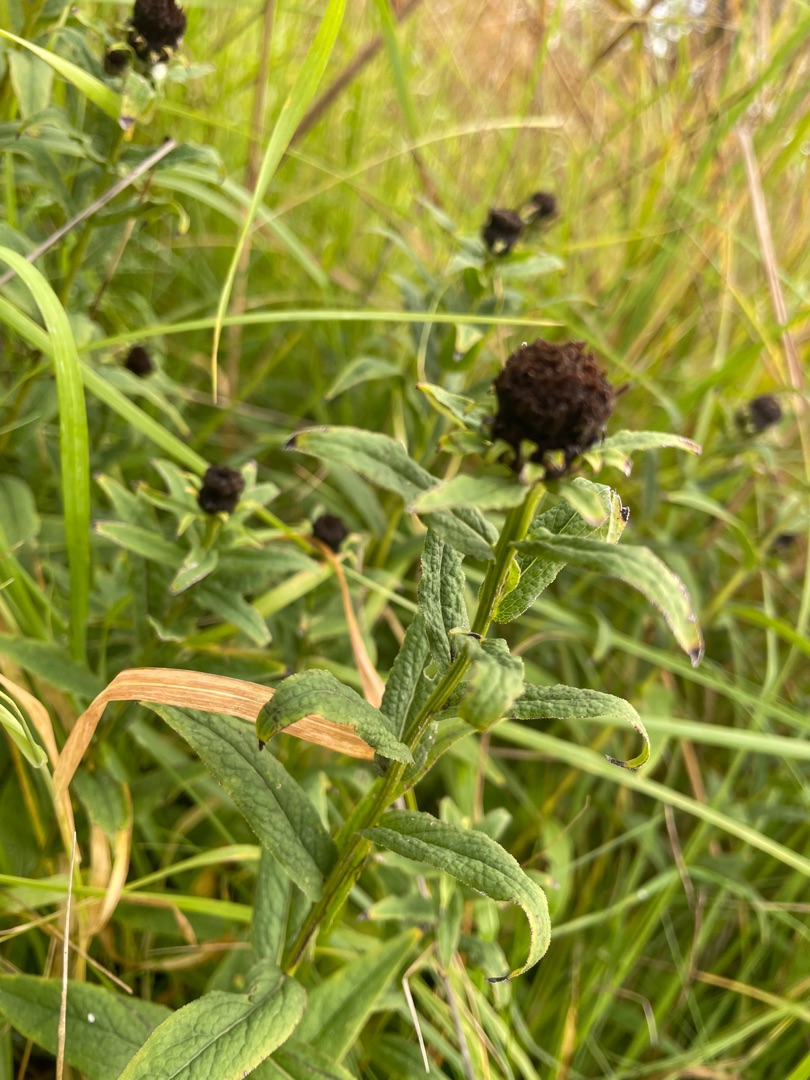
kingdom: Plantae
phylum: Tracheophyta
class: Magnoliopsida
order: Asterales
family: Asteraceae
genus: Pentanema
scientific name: Pentanema salicinum
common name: Pile-alant
